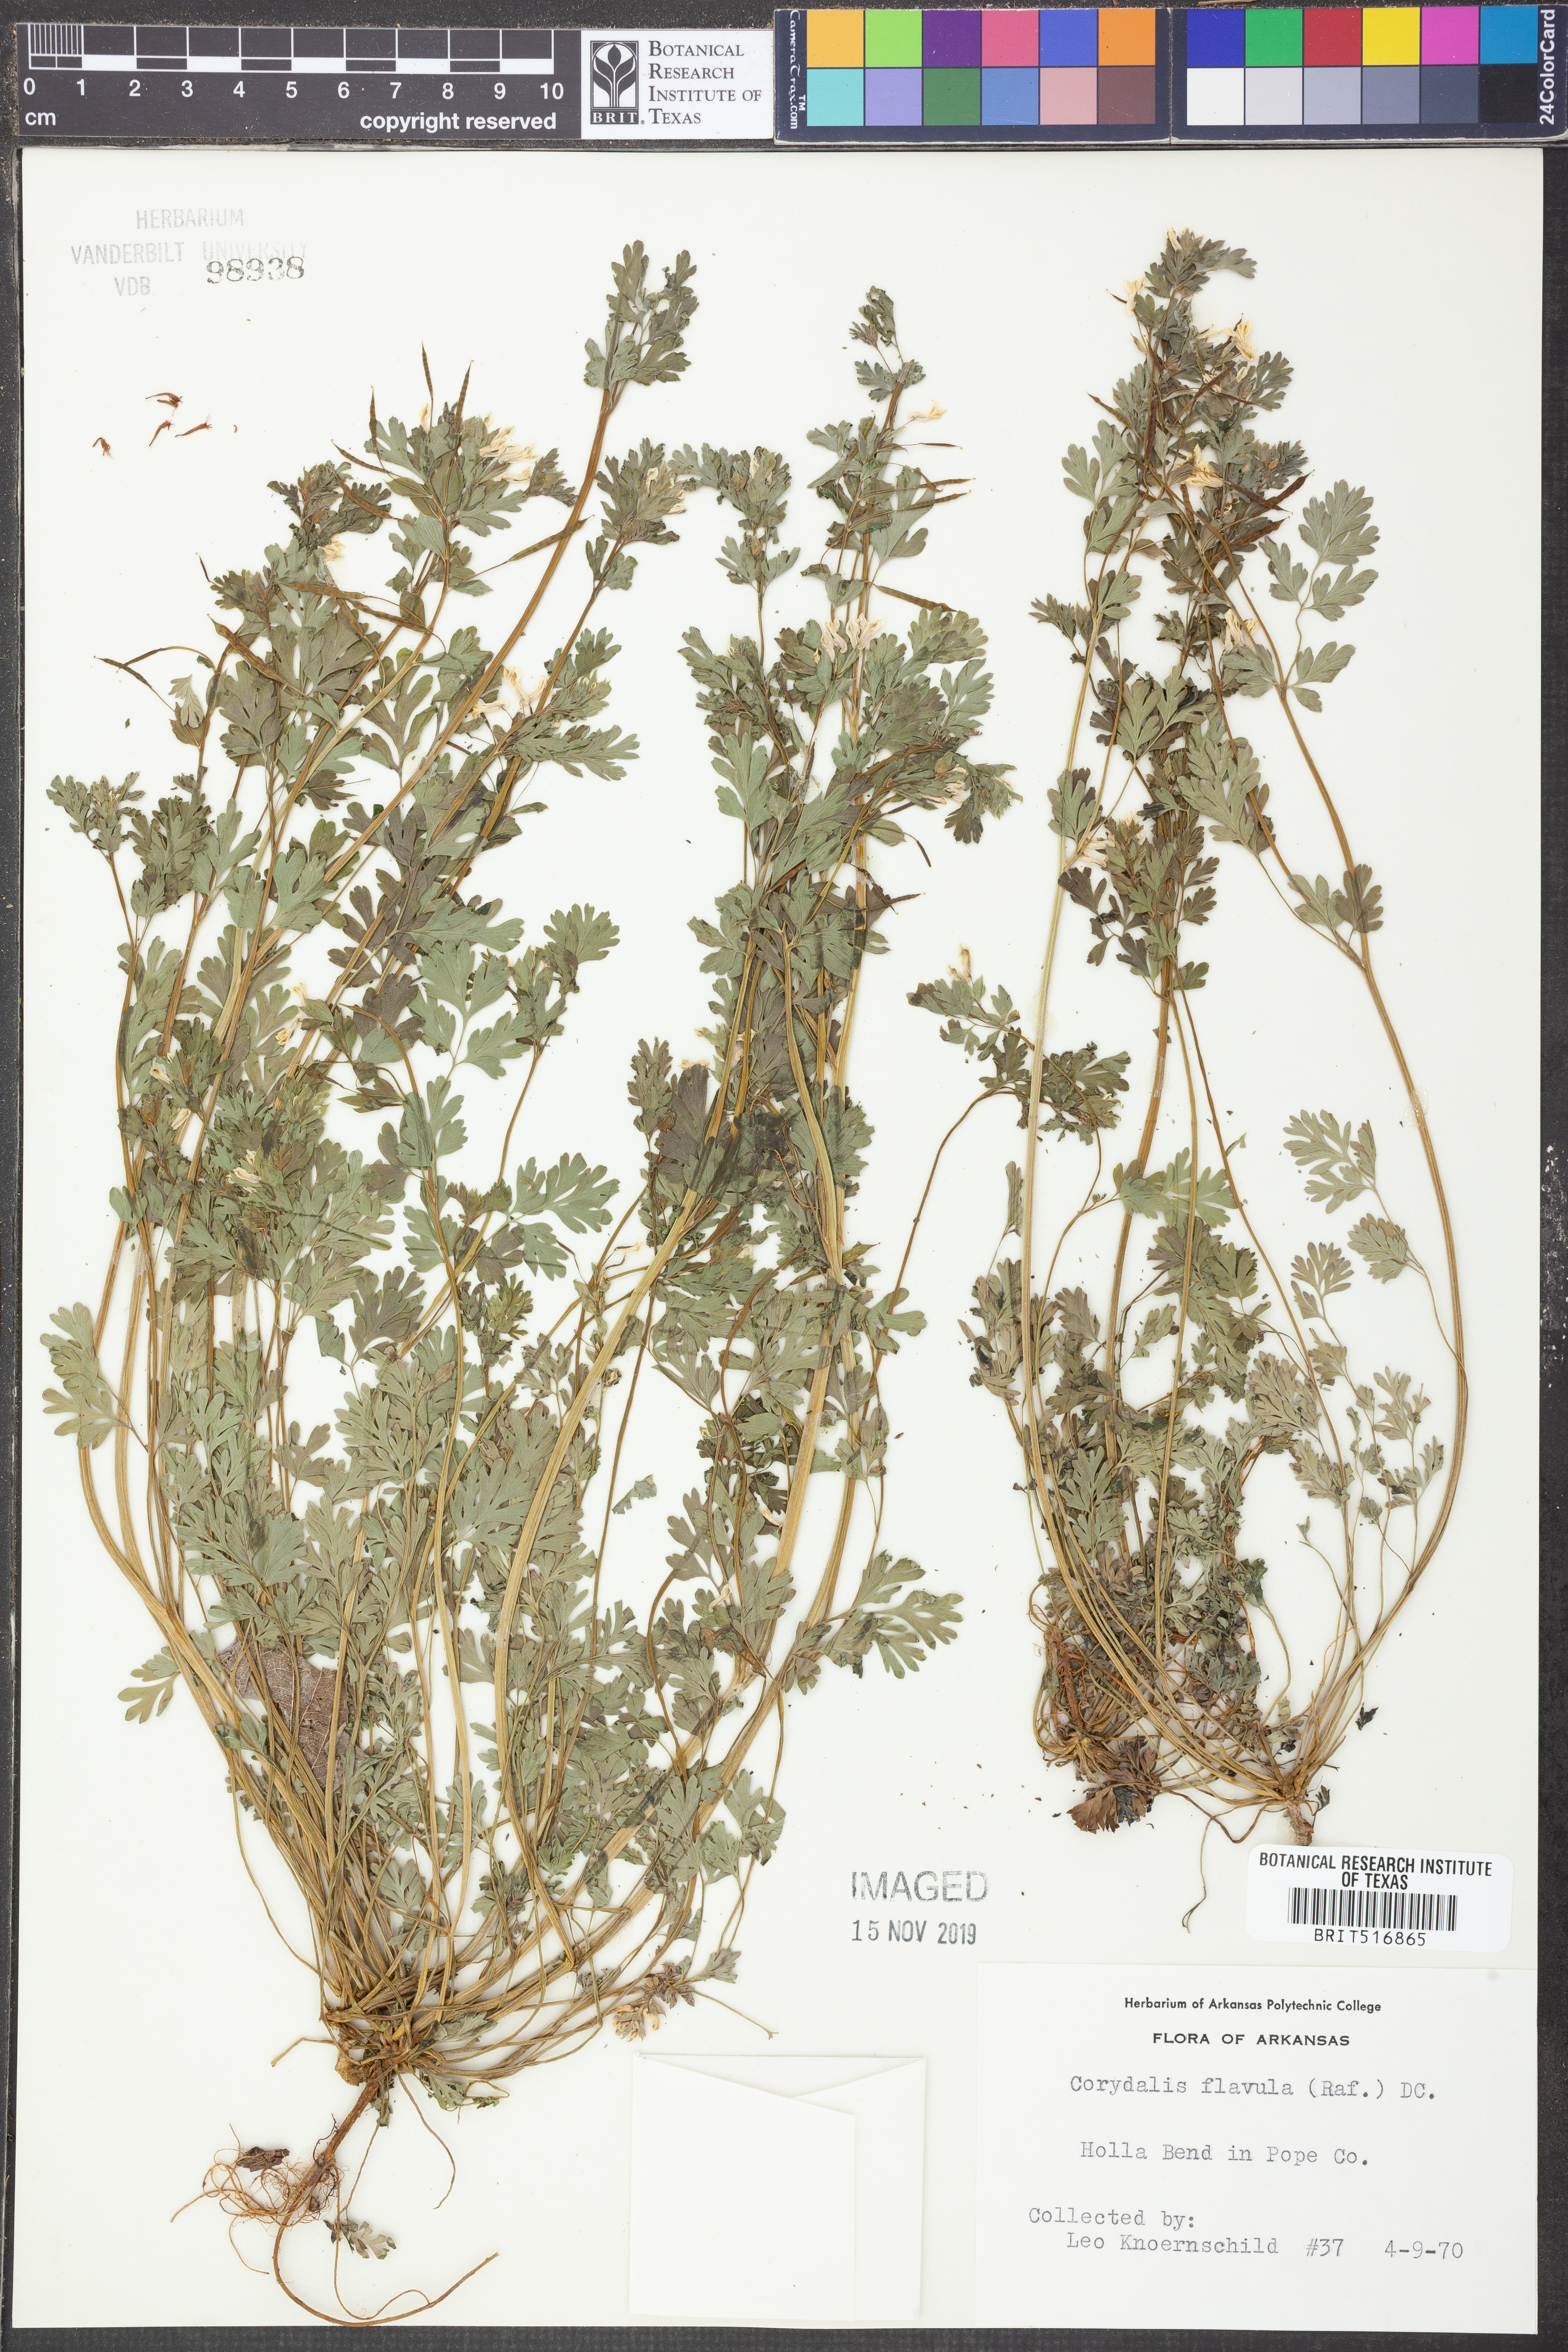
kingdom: Plantae
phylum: Tracheophyta
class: Magnoliopsida
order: Ranunculales
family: Papaveraceae
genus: Corydalis
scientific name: Corydalis flavula
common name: Yellow corydalis
